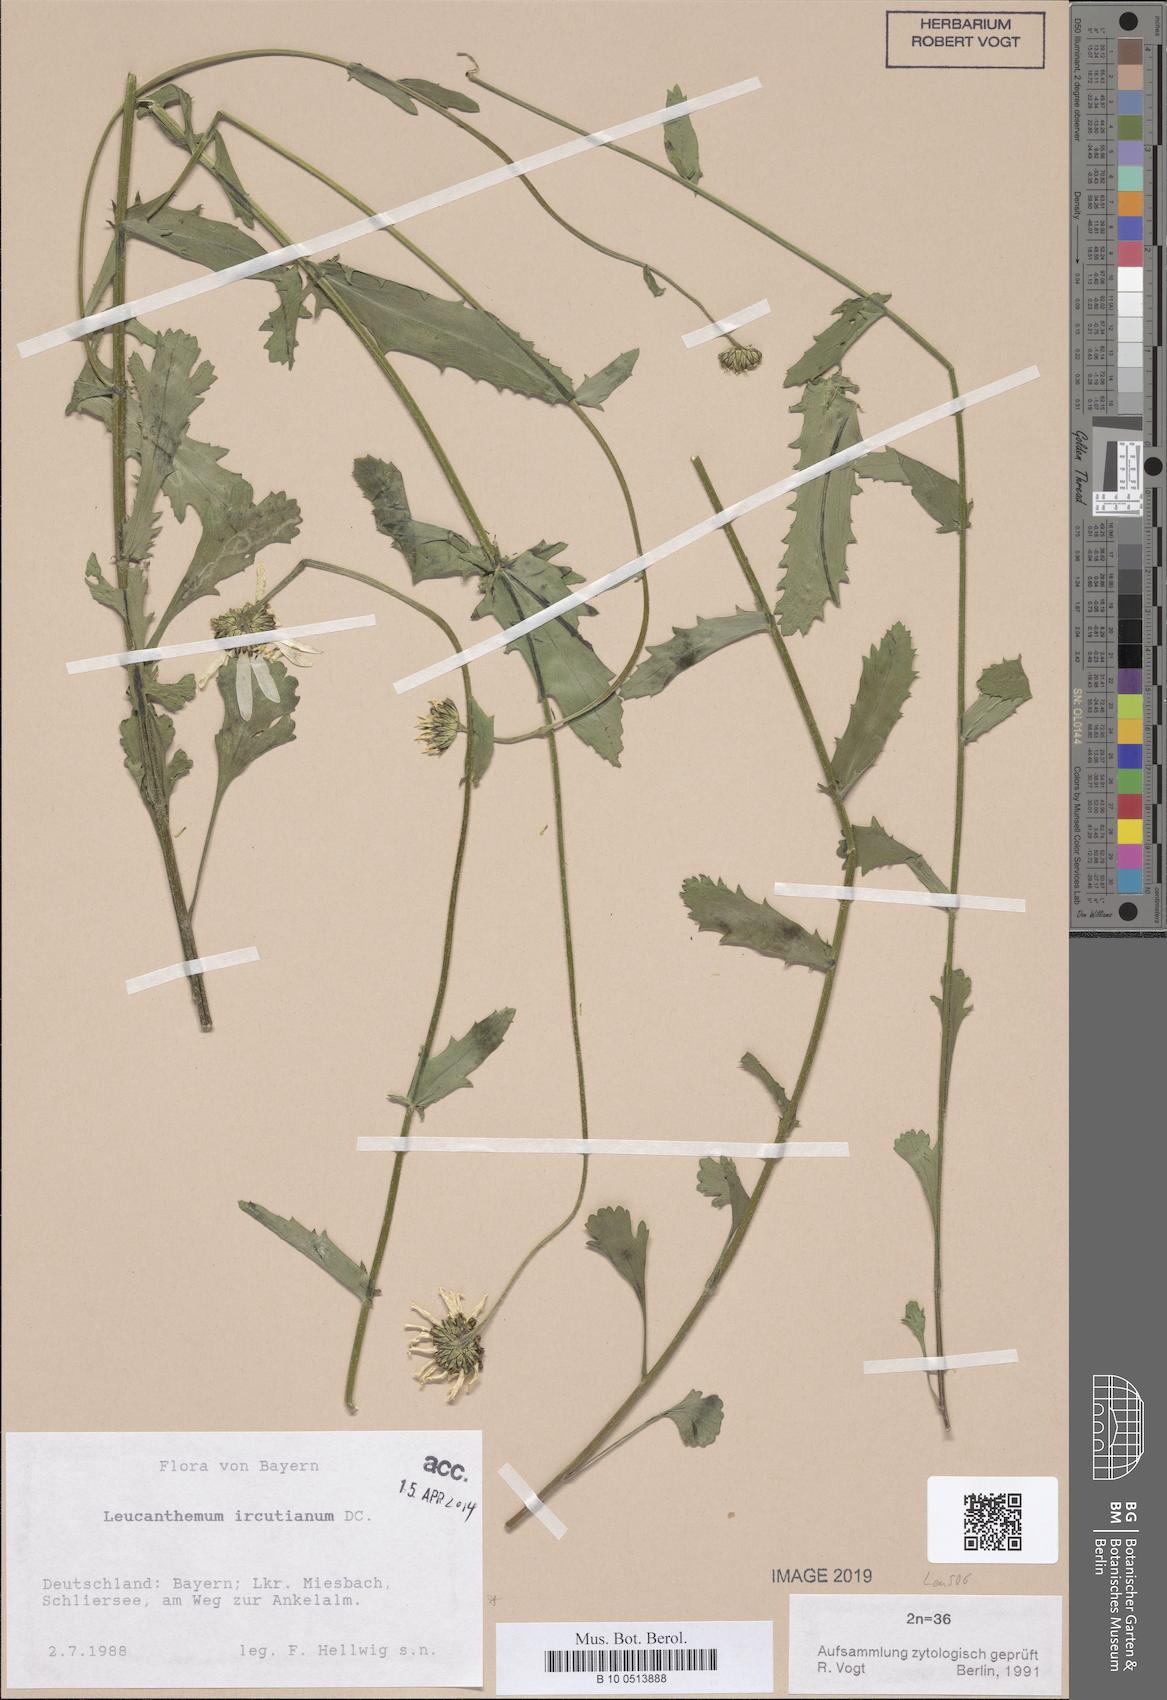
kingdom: Plantae
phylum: Tracheophyta
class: Magnoliopsida
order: Asterales
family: Asteraceae
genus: Leucanthemum
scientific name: Leucanthemum ircutianum
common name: Daisy
